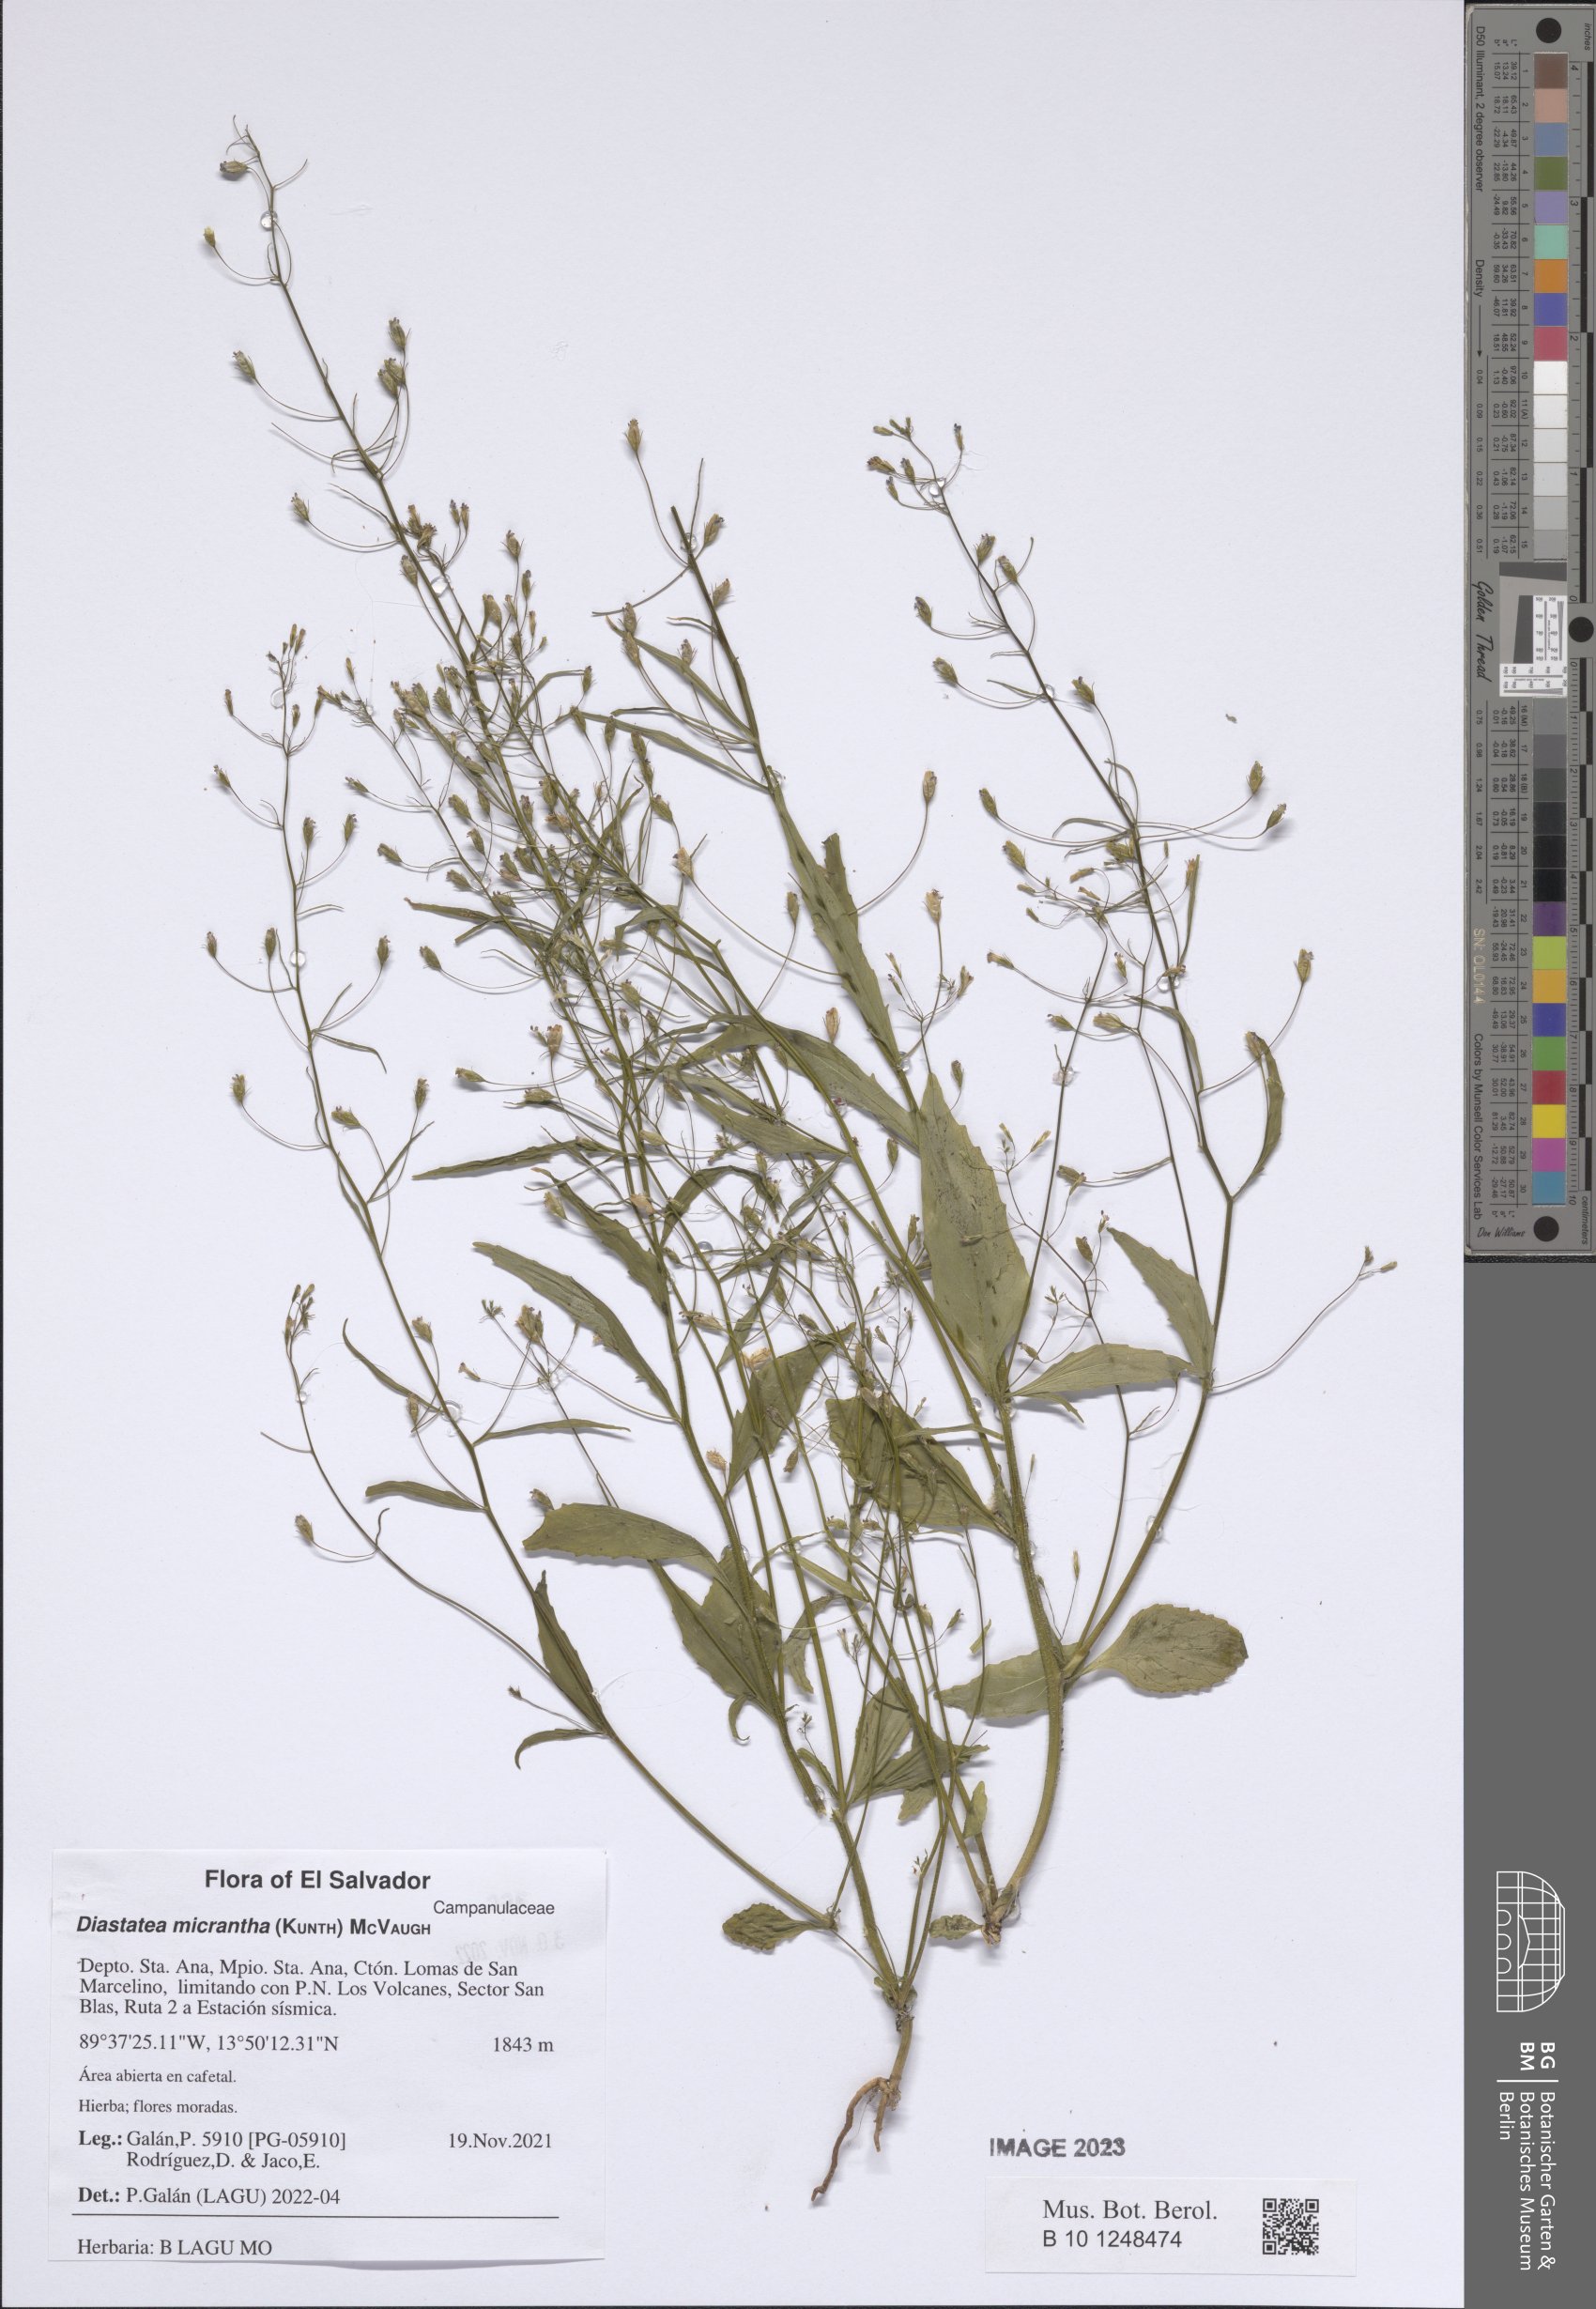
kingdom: Plantae
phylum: Tracheophyta
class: Magnoliopsida
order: Asterales
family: Campanulaceae
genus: Diastatea
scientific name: Diastatea micrantha
